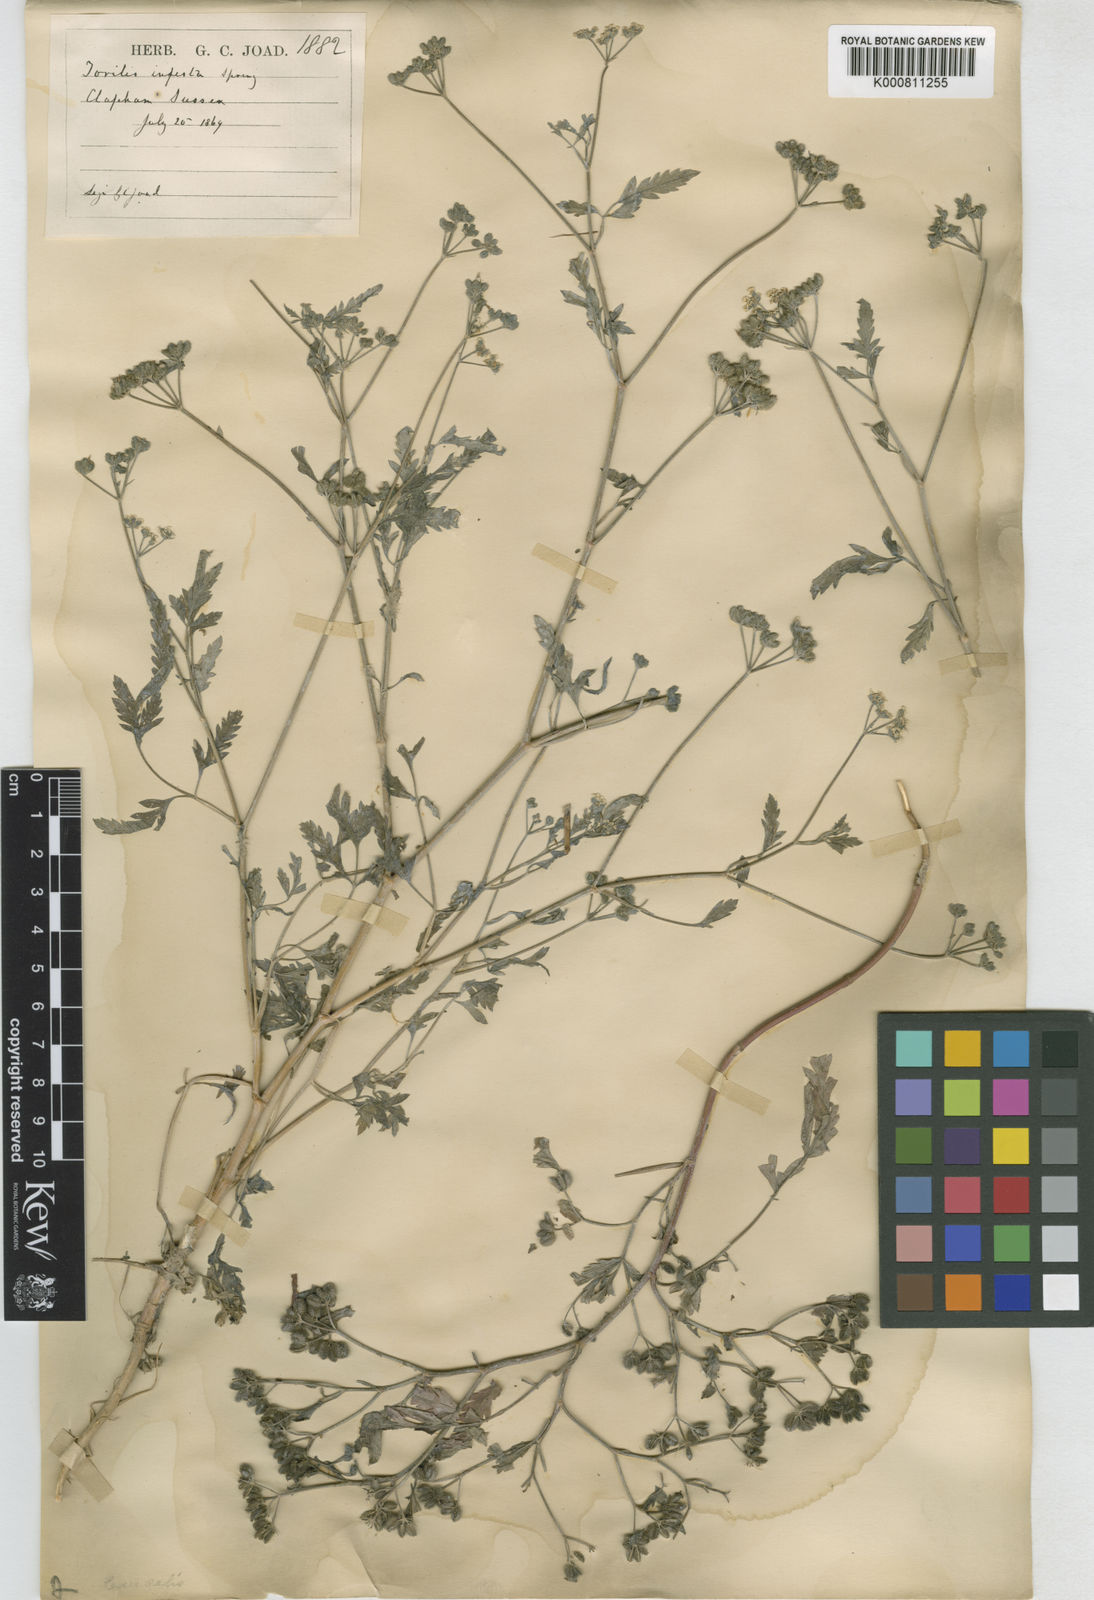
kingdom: Plantae
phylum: Tracheophyta
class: Magnoliopsida
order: Apiales
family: Apiaceae
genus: Torilis
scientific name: Torilis arvensis
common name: Spreading hedge-parsley
